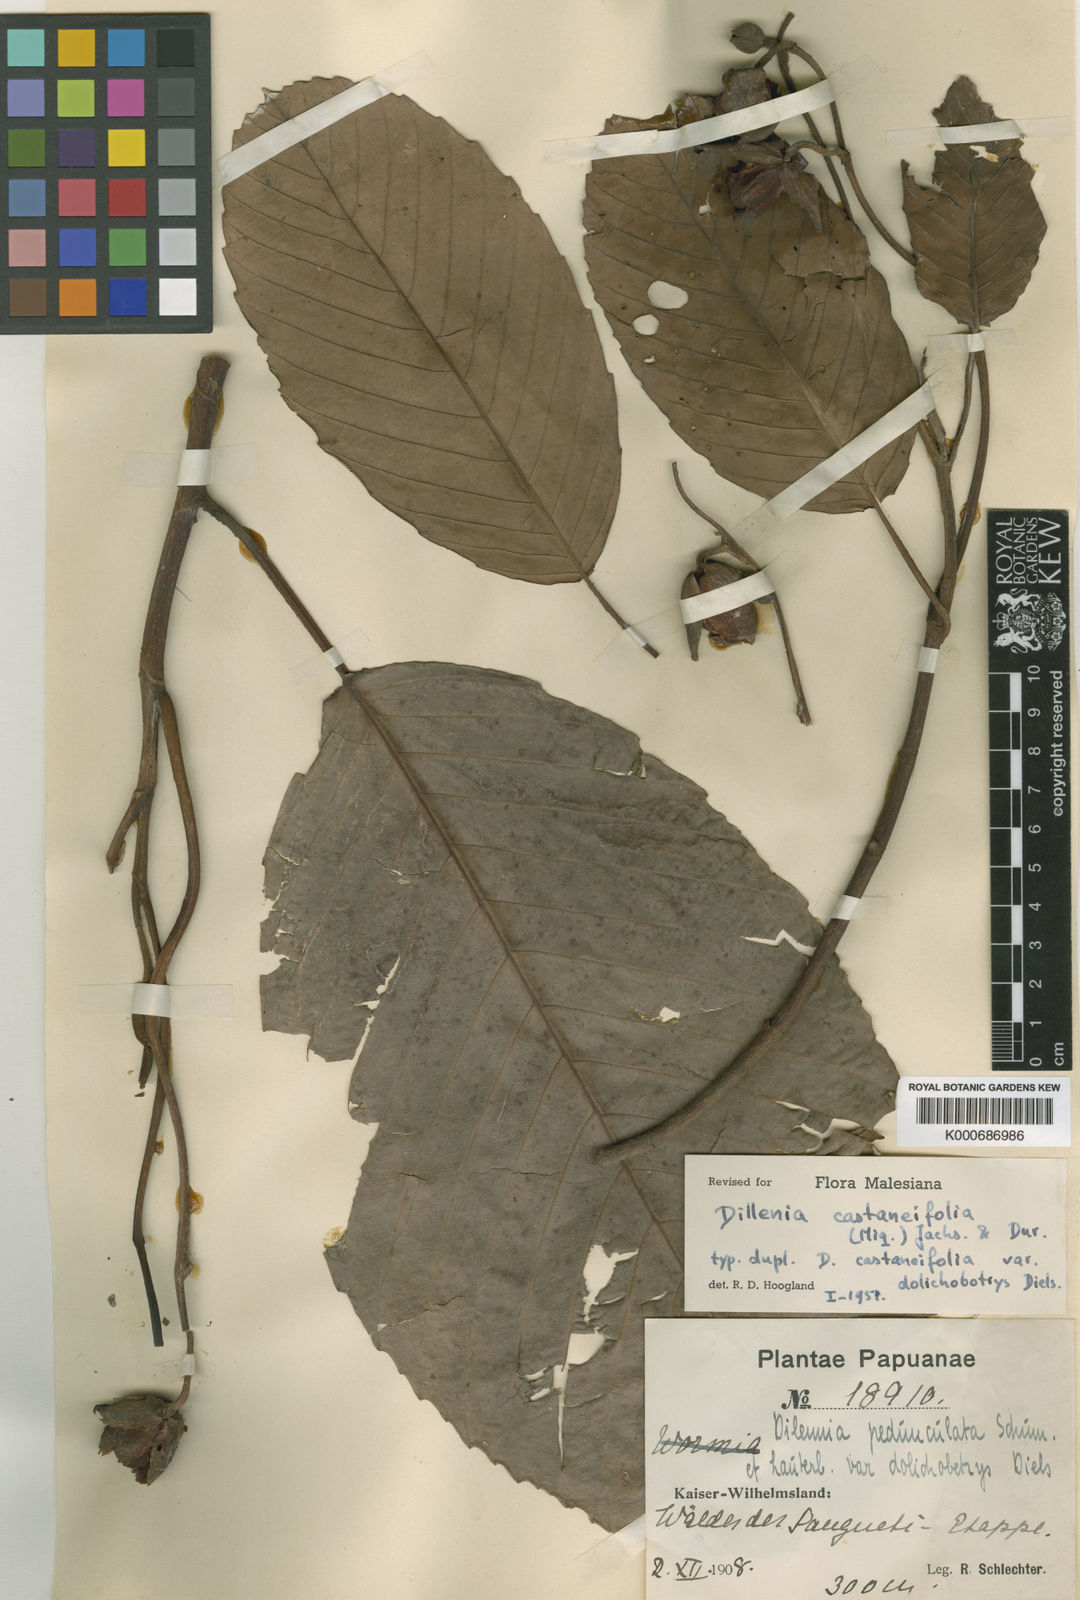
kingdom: Plantae
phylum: Tracheophyta
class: Magnoliopsida
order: Dilleniales
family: Dilleniaceae
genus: Dillenia
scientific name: Dillenia castaneifolia
